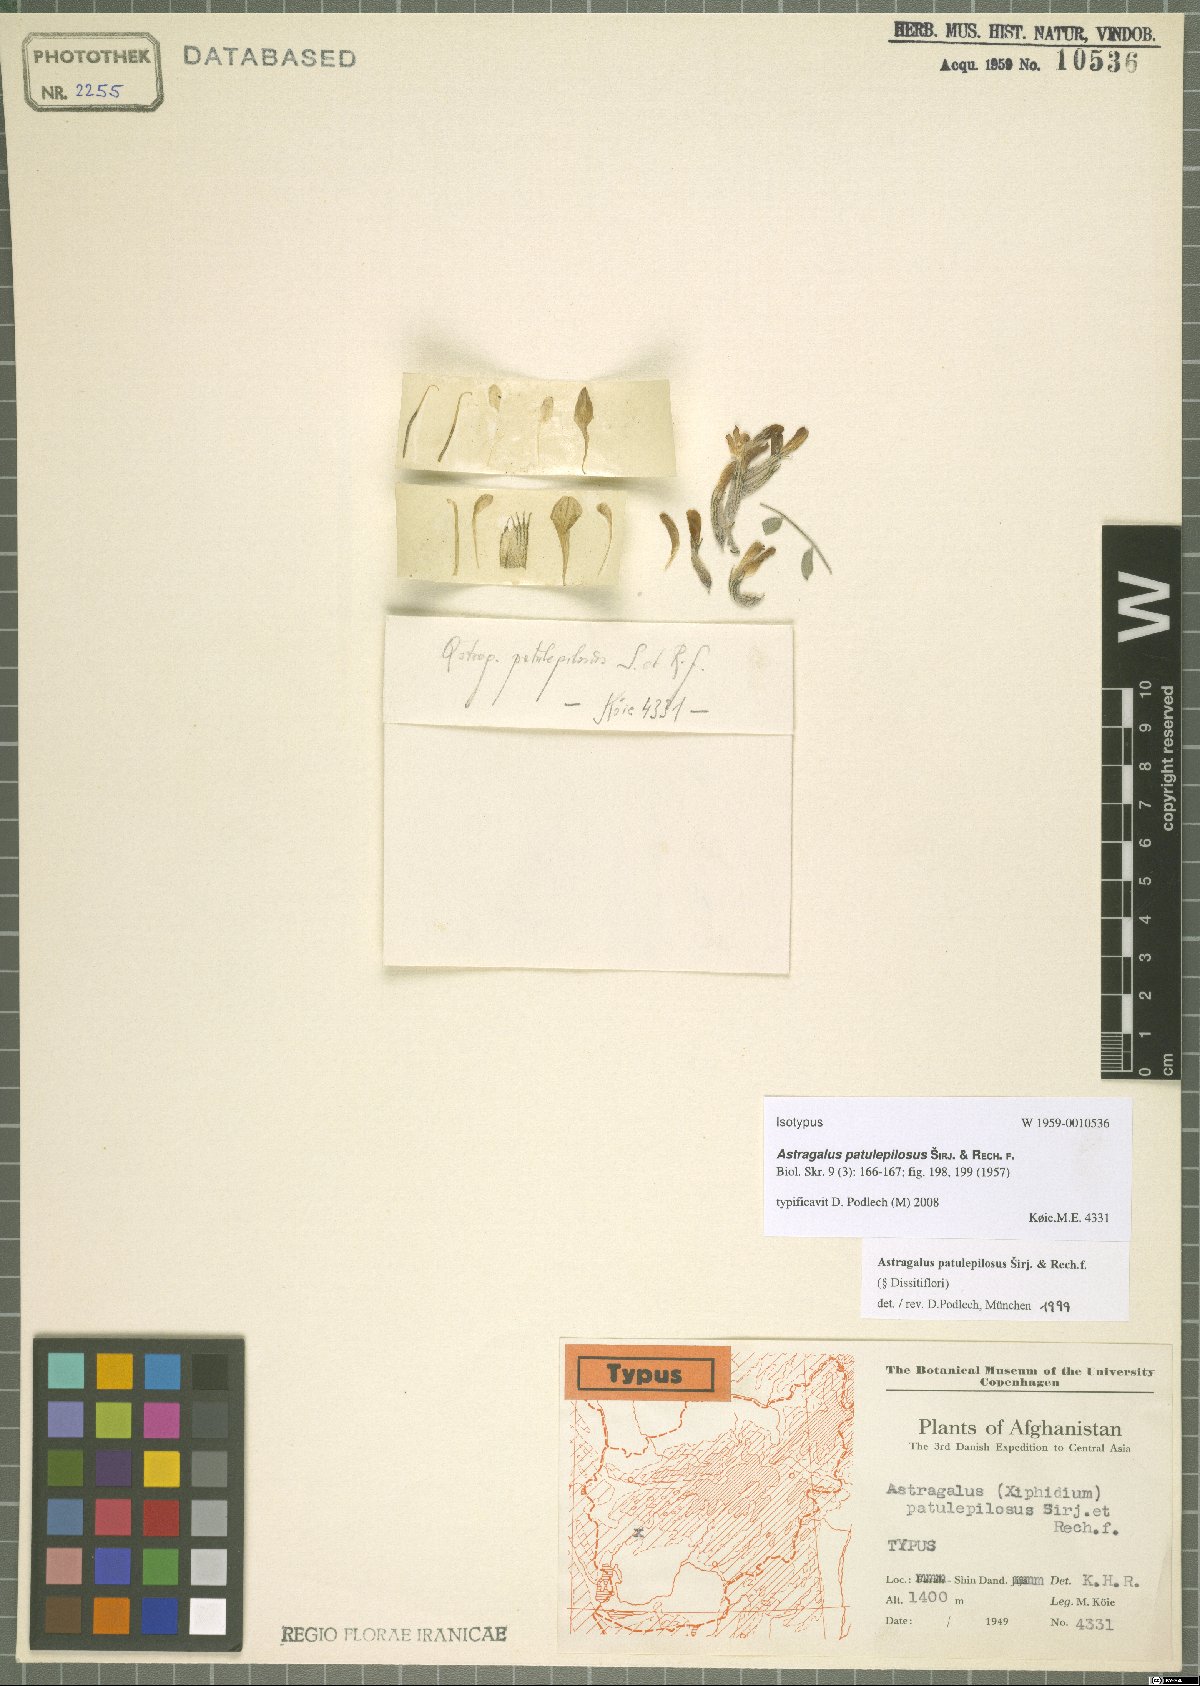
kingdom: Plantae
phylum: Tracheophyta
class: Magnoliopsida
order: Fabales
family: Fabaceae
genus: Astragalus
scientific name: Astragalus patulepilosus
